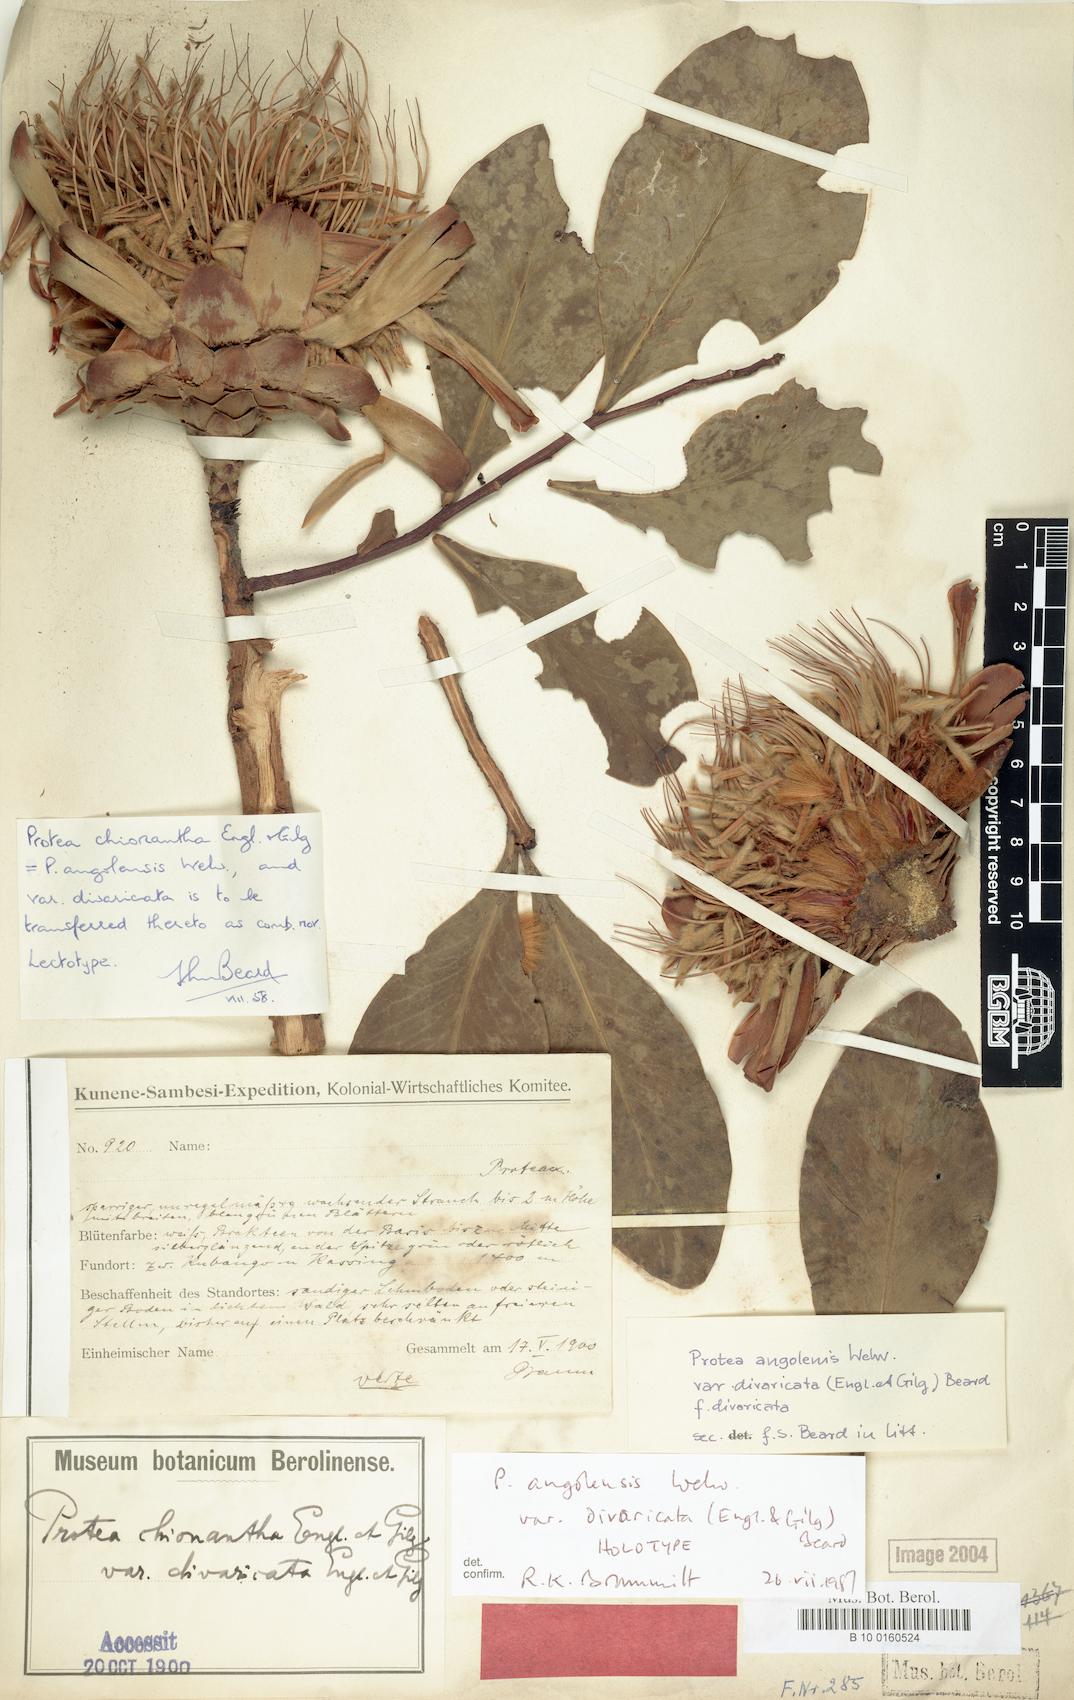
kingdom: Plantae
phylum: Tracheophyta
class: Magnoliopsida
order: Proteales
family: Proteaceae
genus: Protea
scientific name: Protea angolensis
